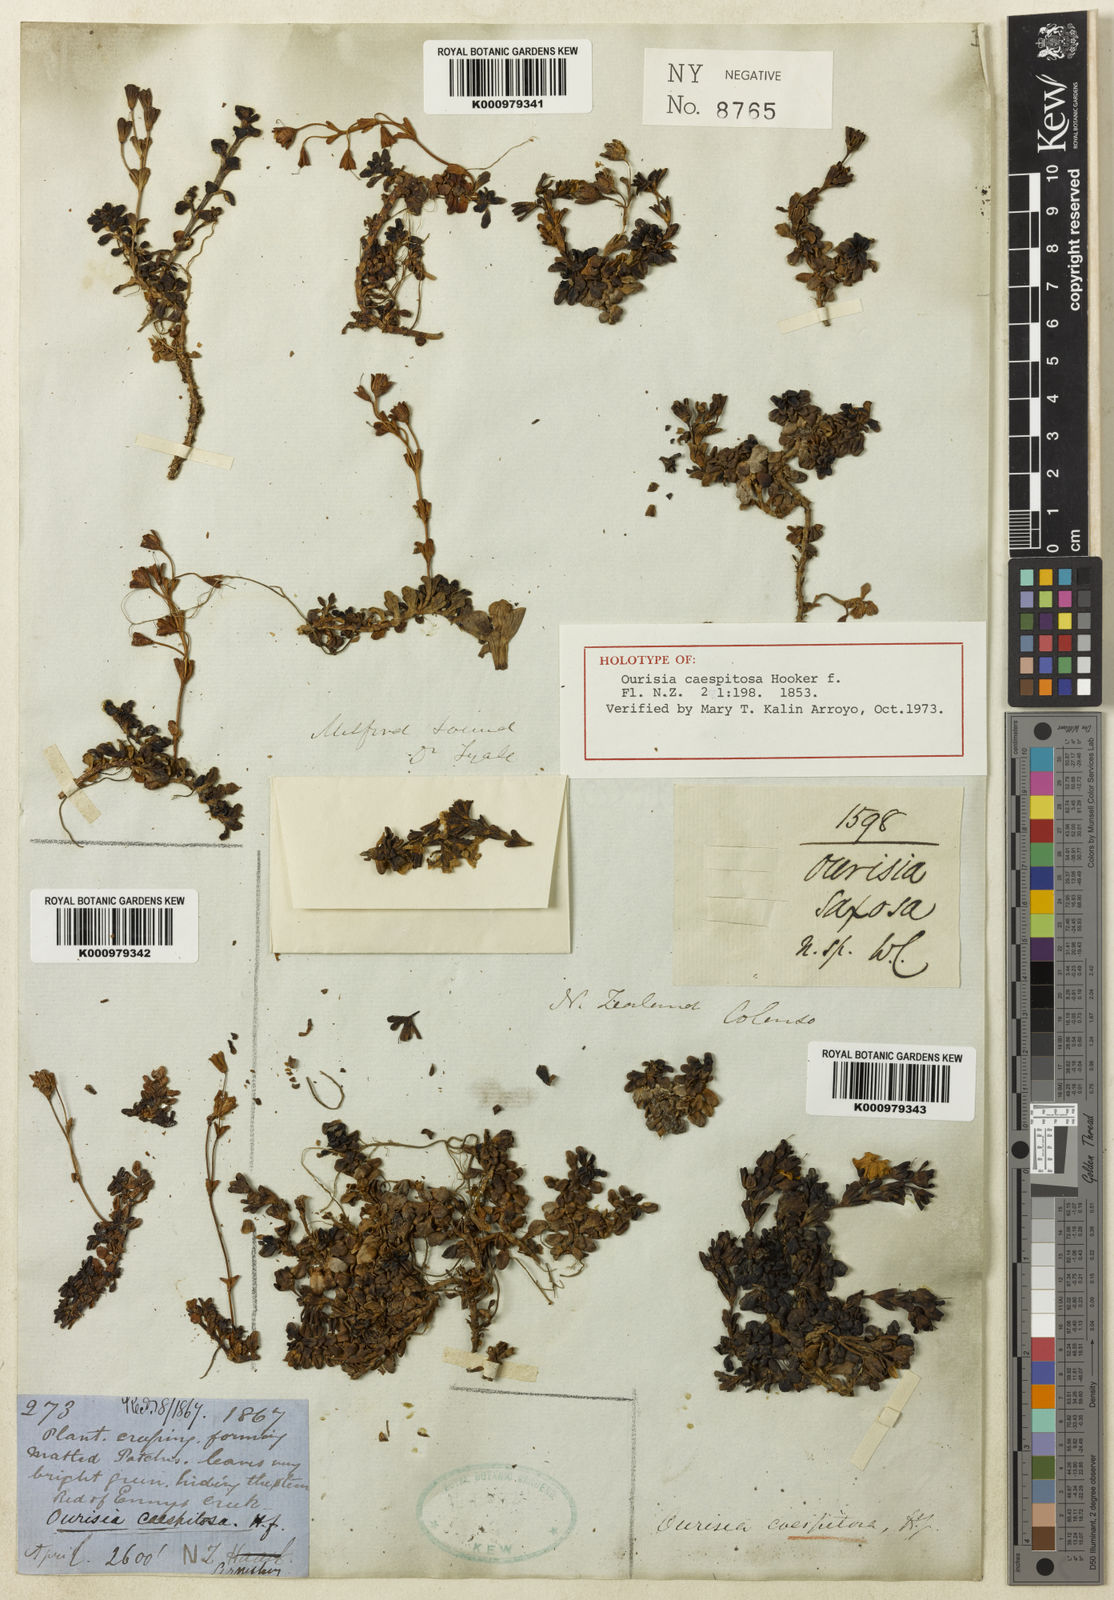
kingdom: Plantae
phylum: Tracheophyta
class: Magnoliopsida
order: Lamiales
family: Plantaginaceae
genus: Ourisia
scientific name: Ourisia caespitosa
